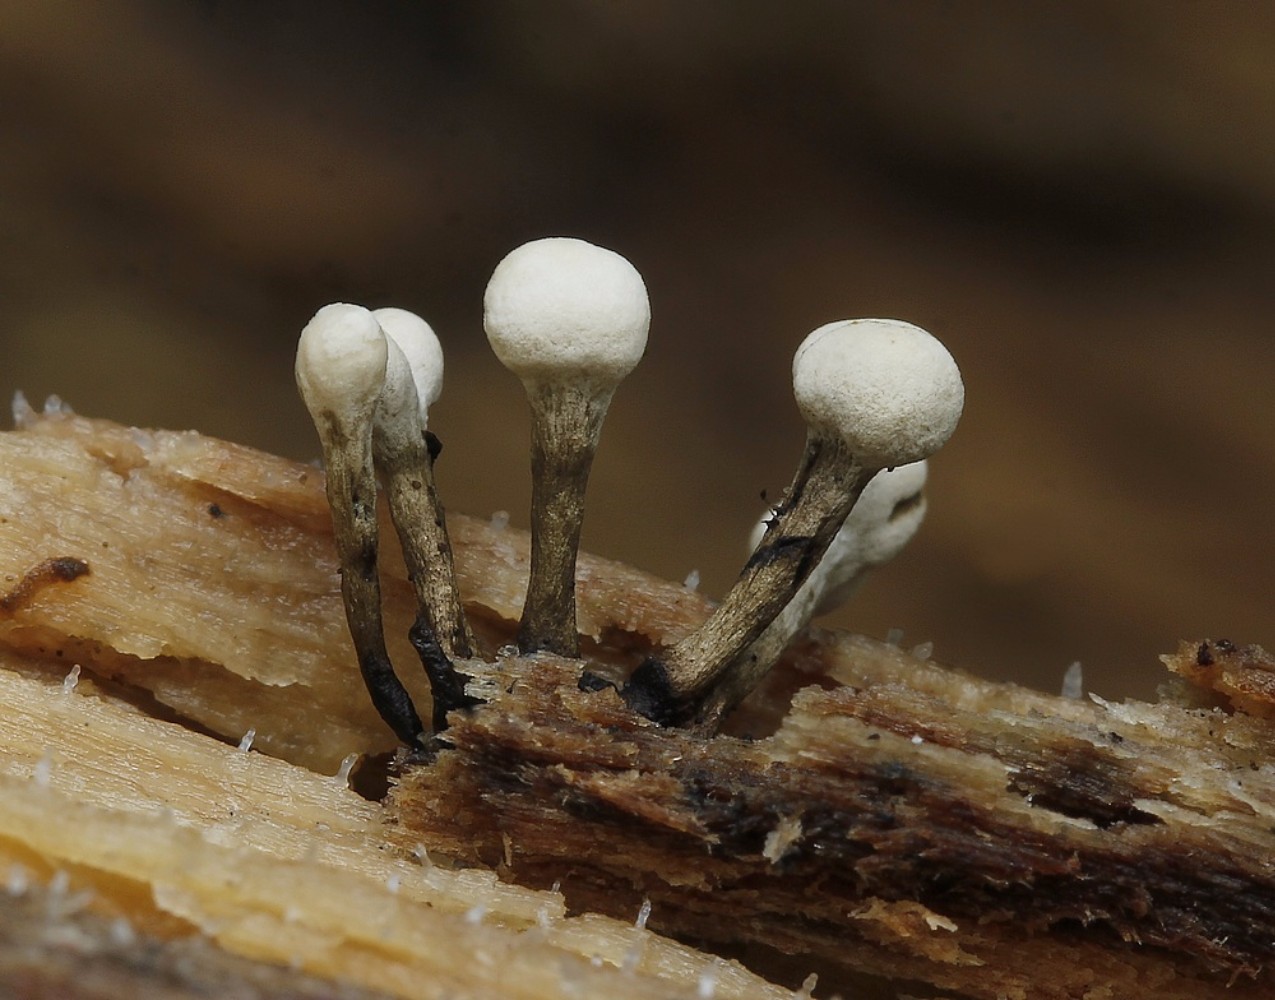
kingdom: Fungi
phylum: Basidiomycota
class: Atractiellomycetes
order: Atractiellales
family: Phleogenaceae
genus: Phleogena
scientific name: Phleogena faginea
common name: pudderkølle
